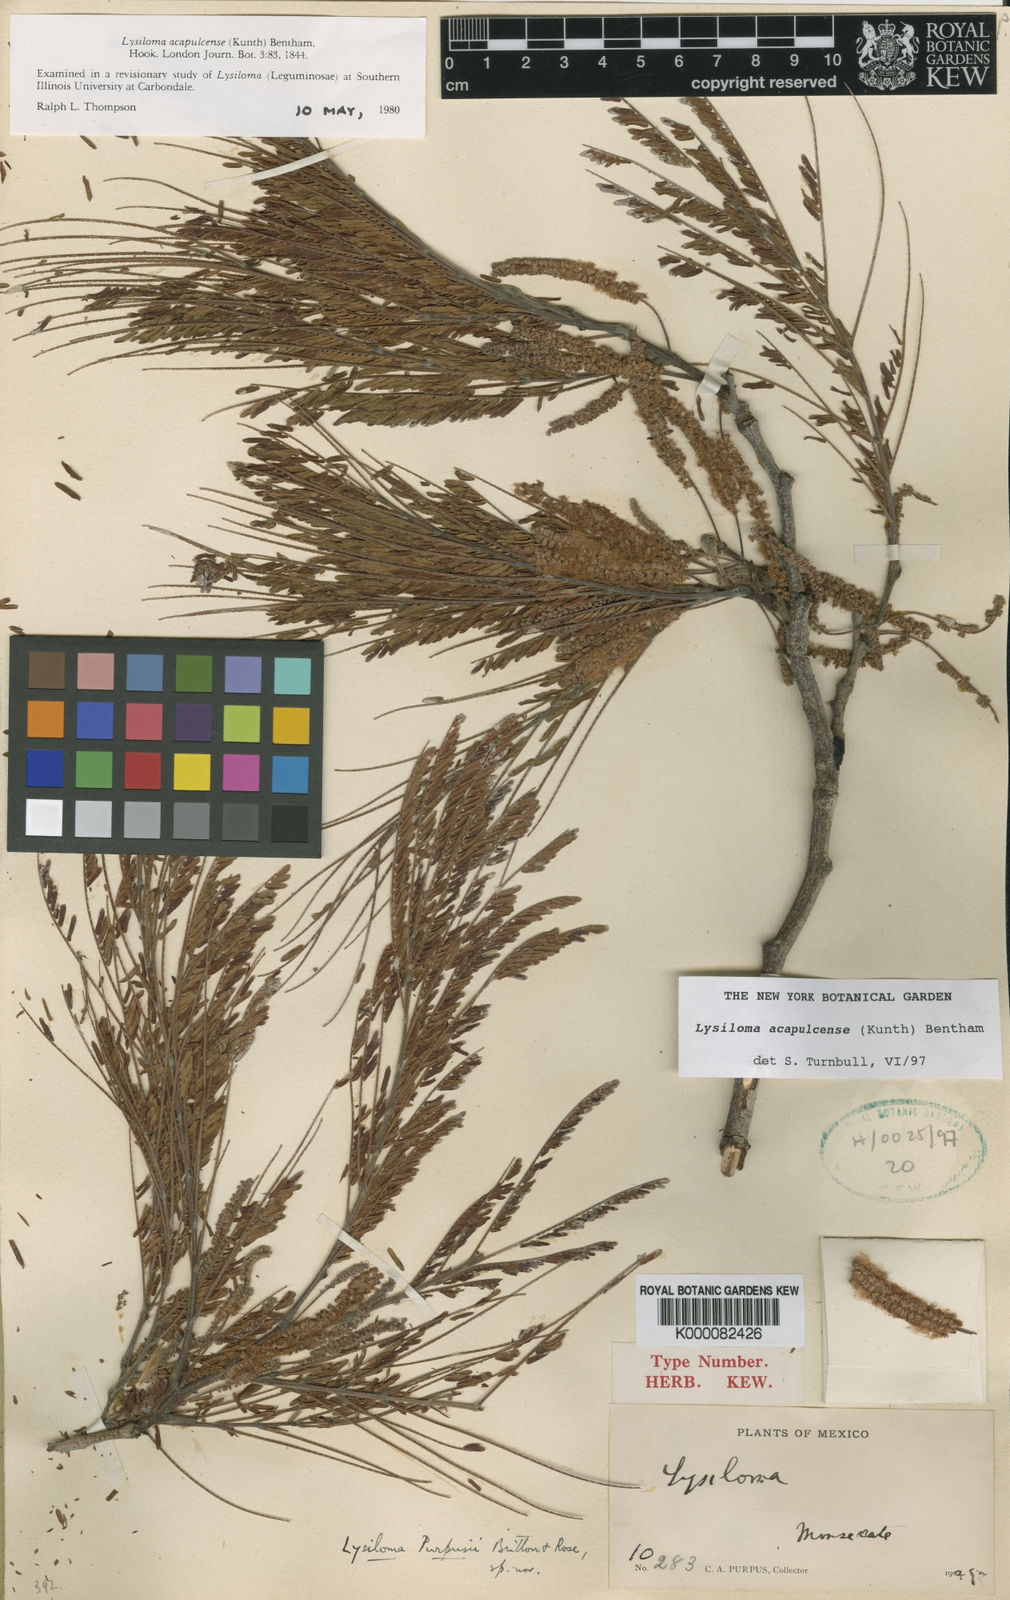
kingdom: Plantae
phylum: Tracheophyta
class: Magnoliopsida
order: Fabales
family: Fabaceae
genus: Lysiloma
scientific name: Lysiloma acapulcense
